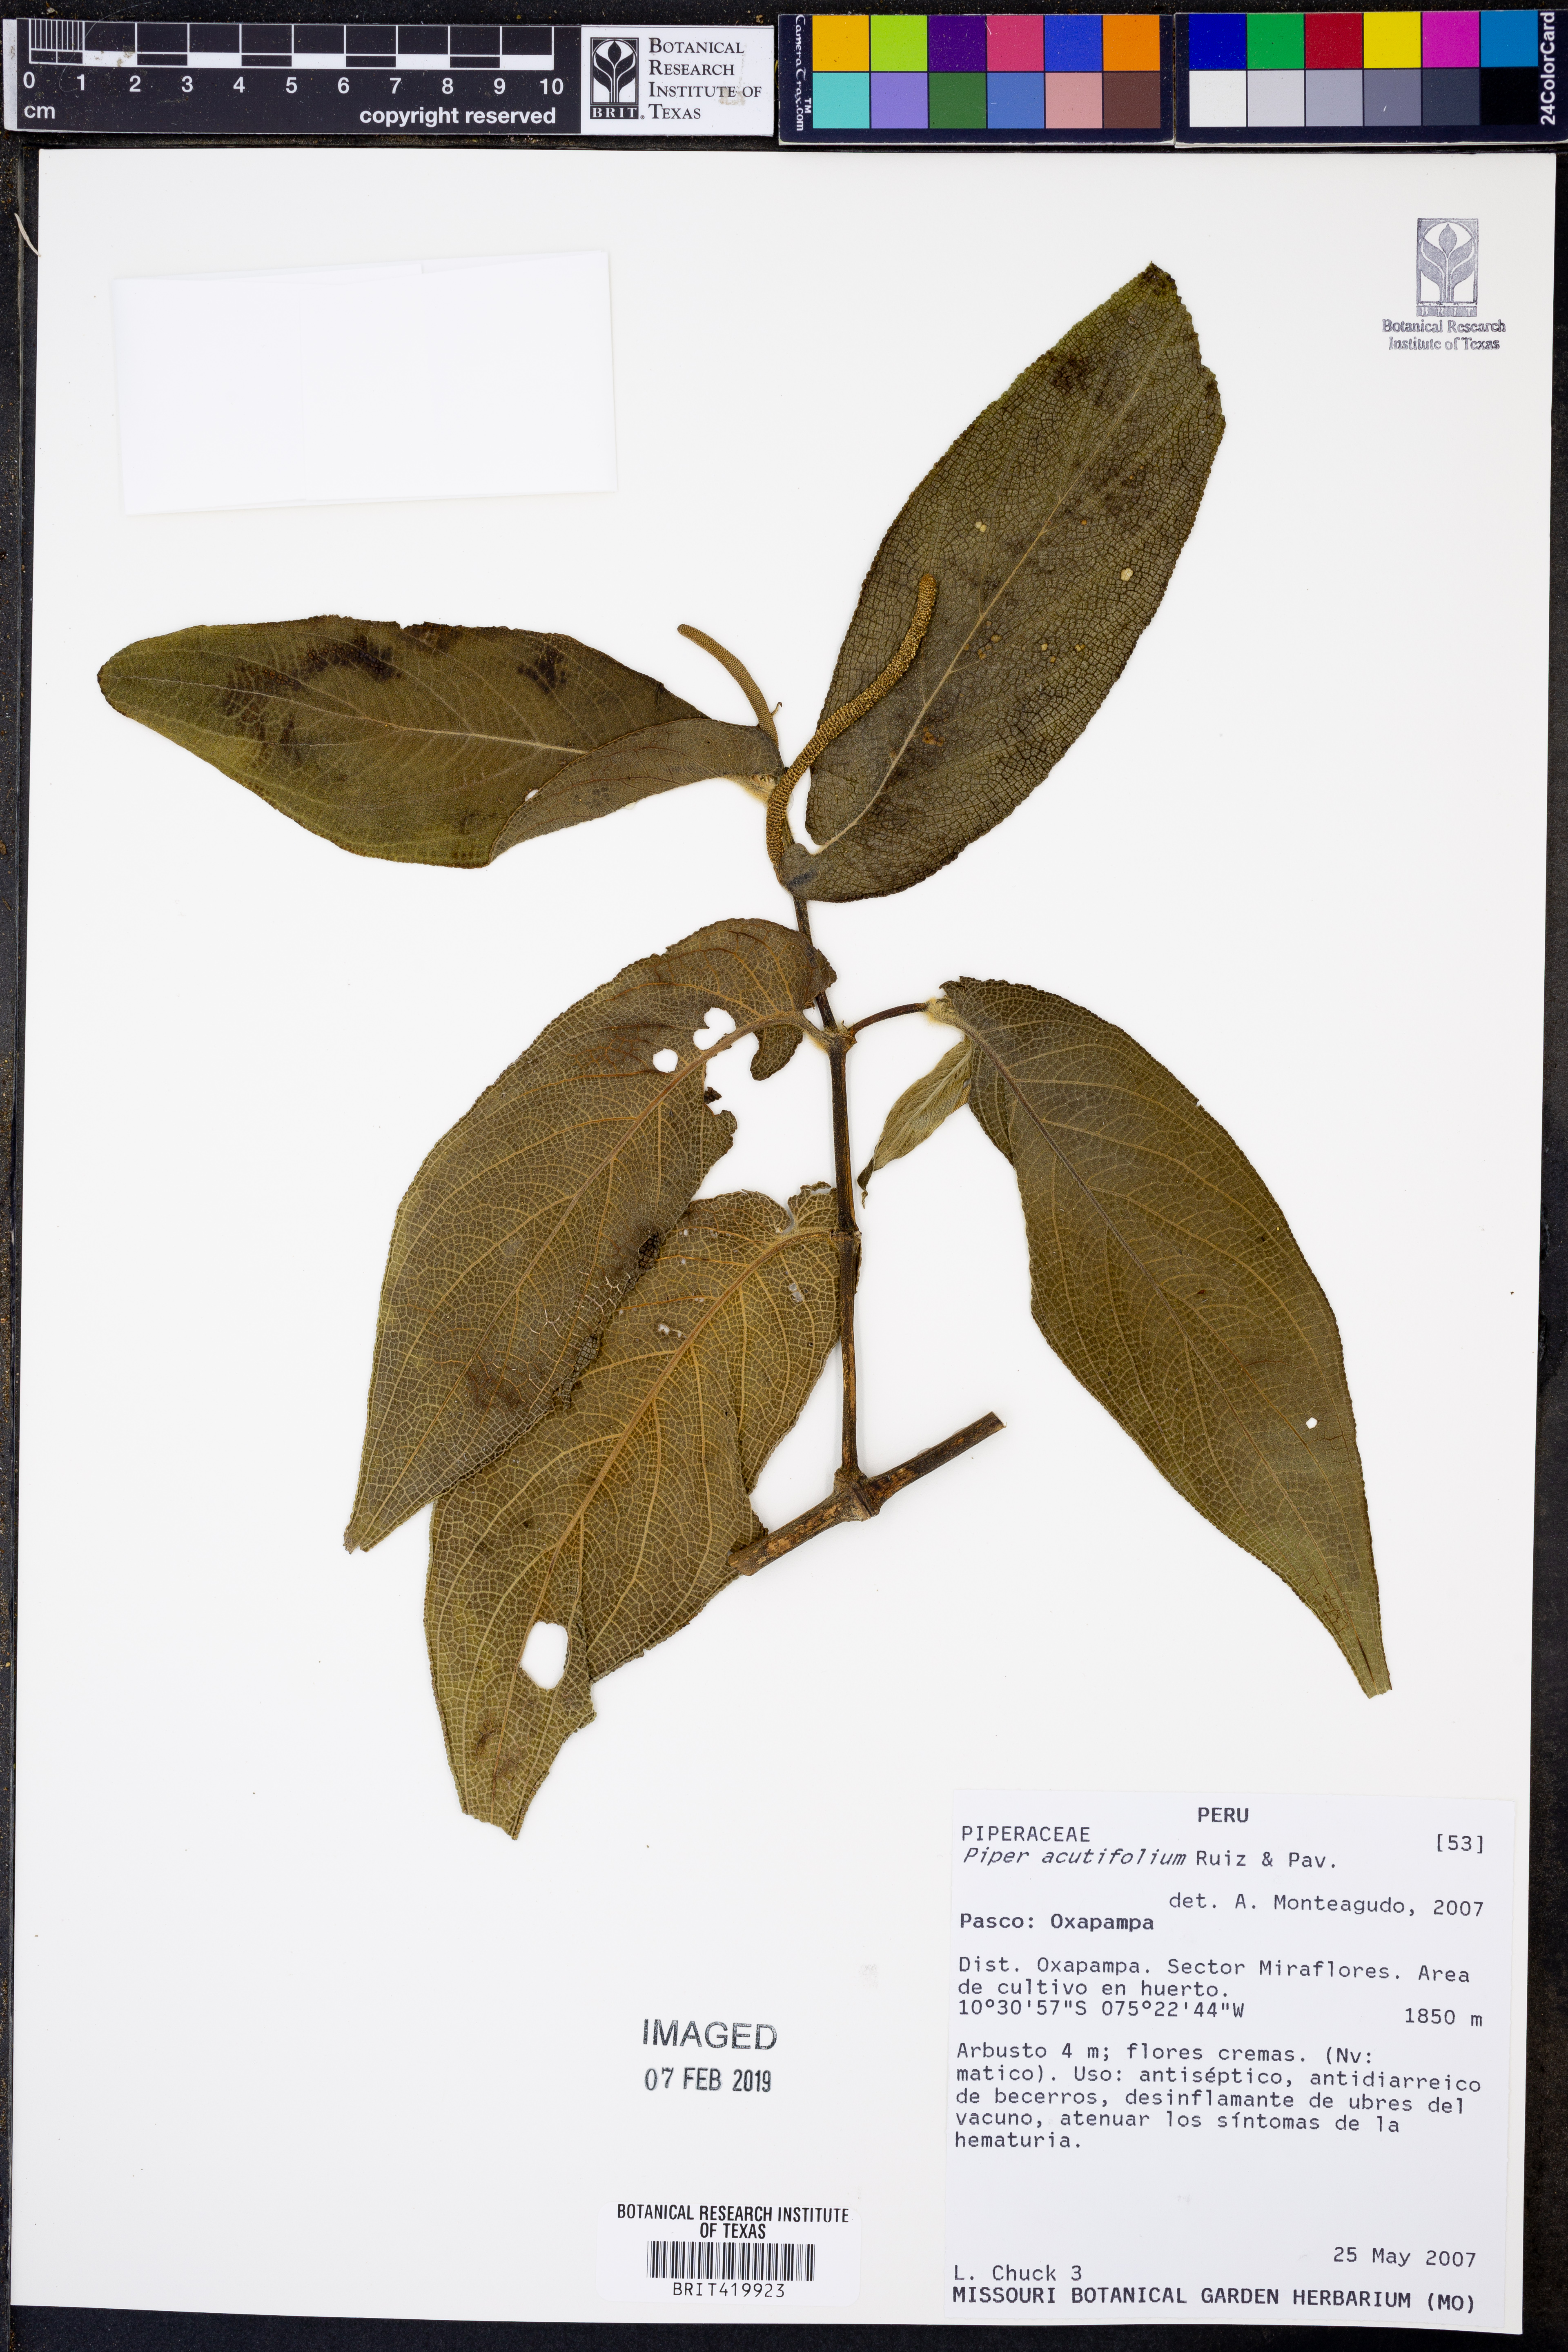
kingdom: Plantae
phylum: Tracheophyta
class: Magnoliopsida
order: Piperales
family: Piperaceae
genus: Piper
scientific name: Piper acutifolium
